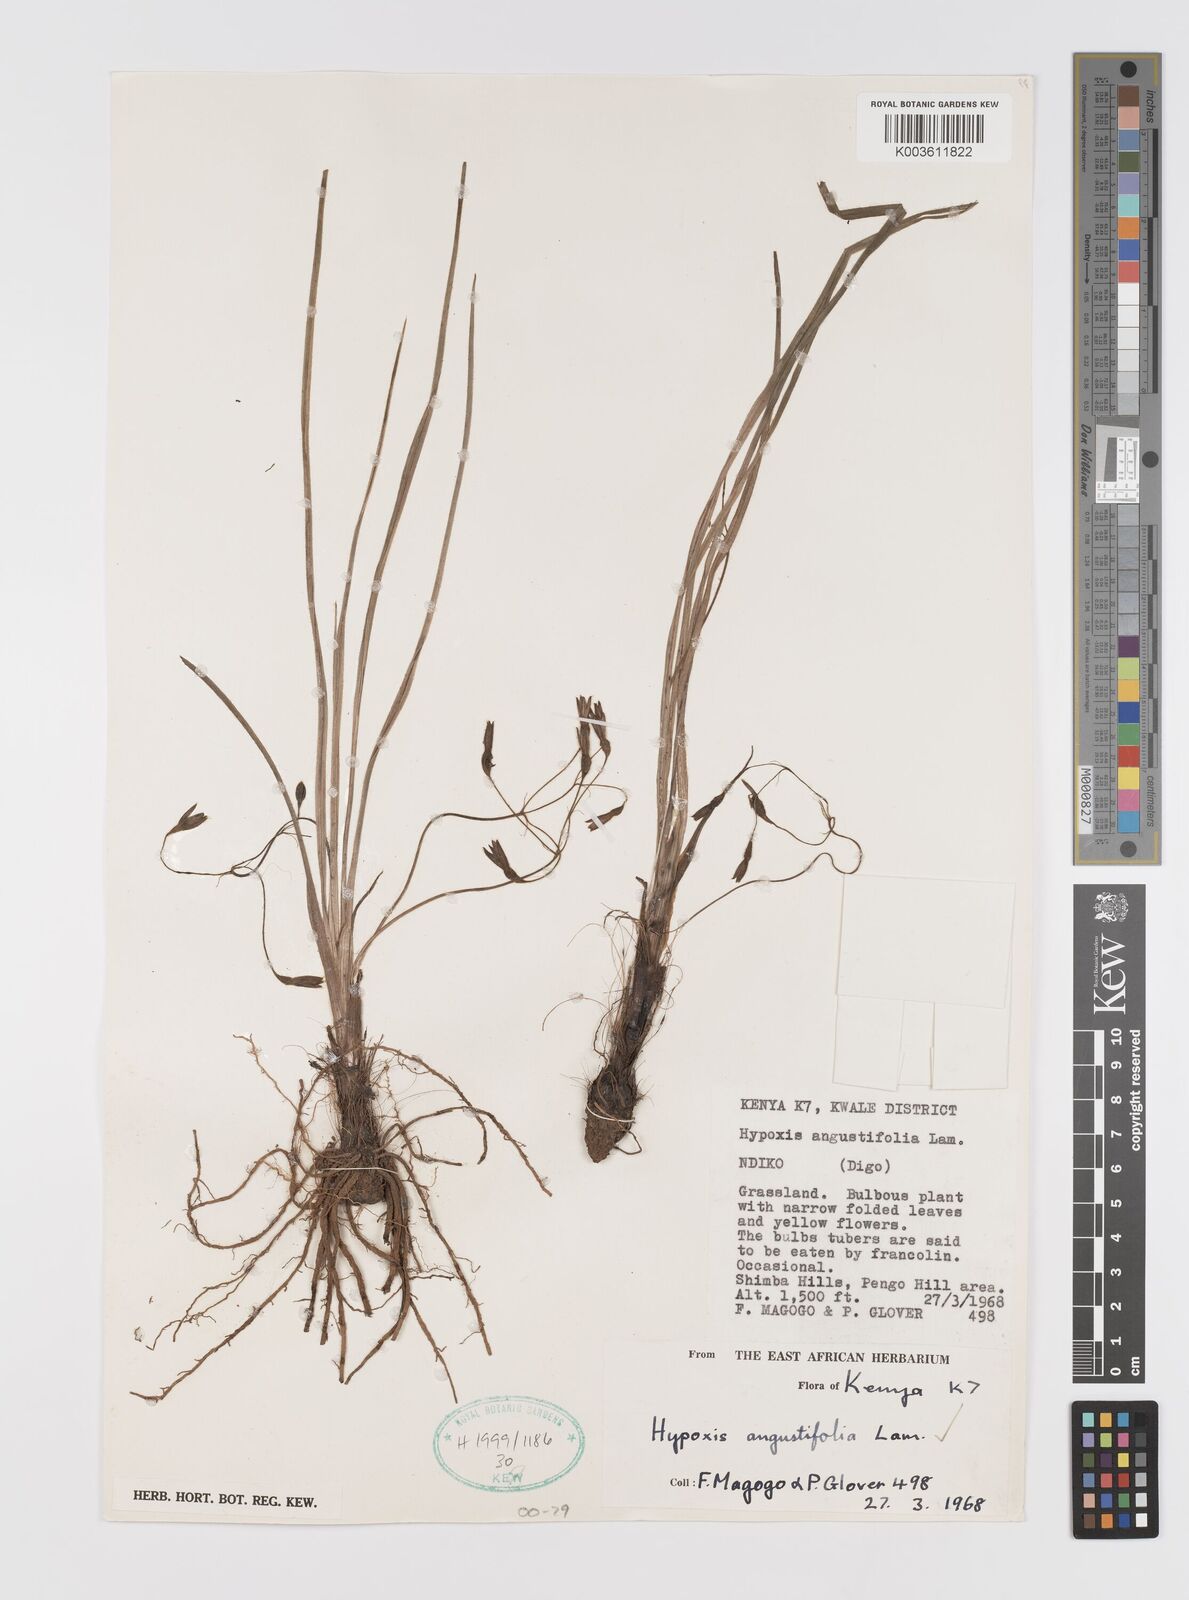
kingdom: Plantae
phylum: Tracheophyta
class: Liliopsida
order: Asparagales
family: Hypoxidaceae
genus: Hypoxis
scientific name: Hypoxis angustifolia
